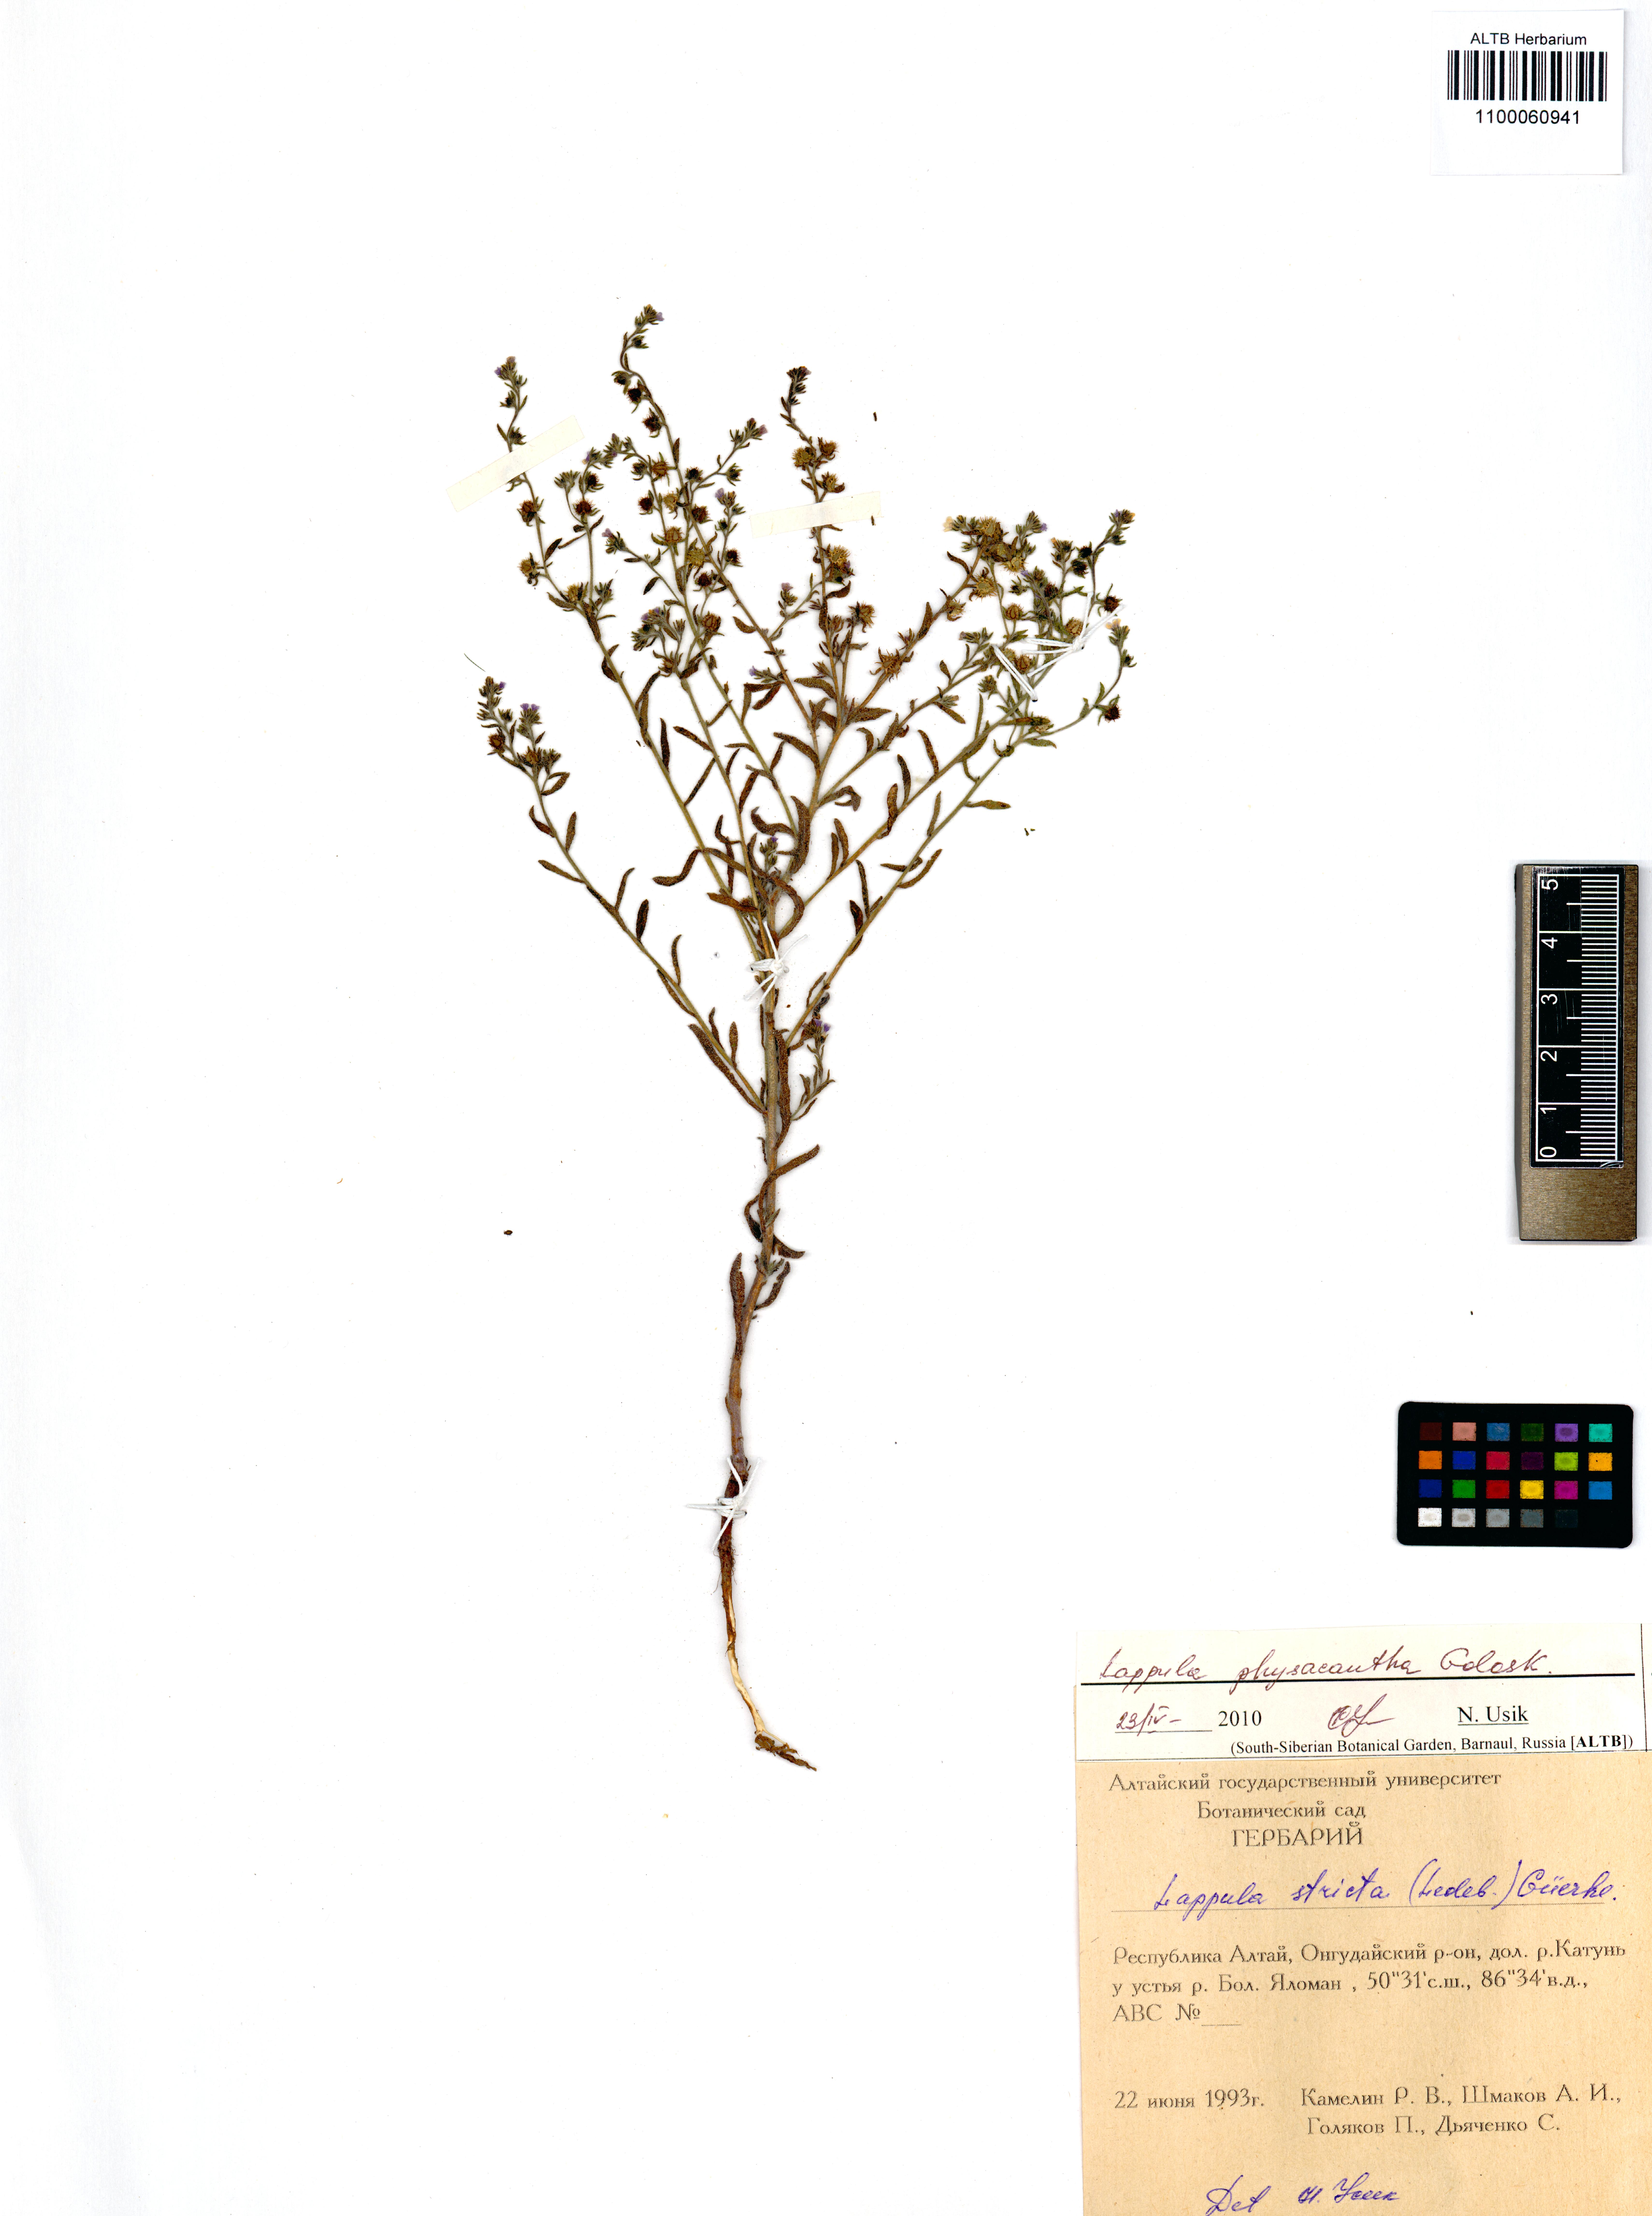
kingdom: Plantae
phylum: Tracheophyta
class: Magnoliopsida
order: Boraginales
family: Boraginaceae
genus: Lappula
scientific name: Lappula physacantha
